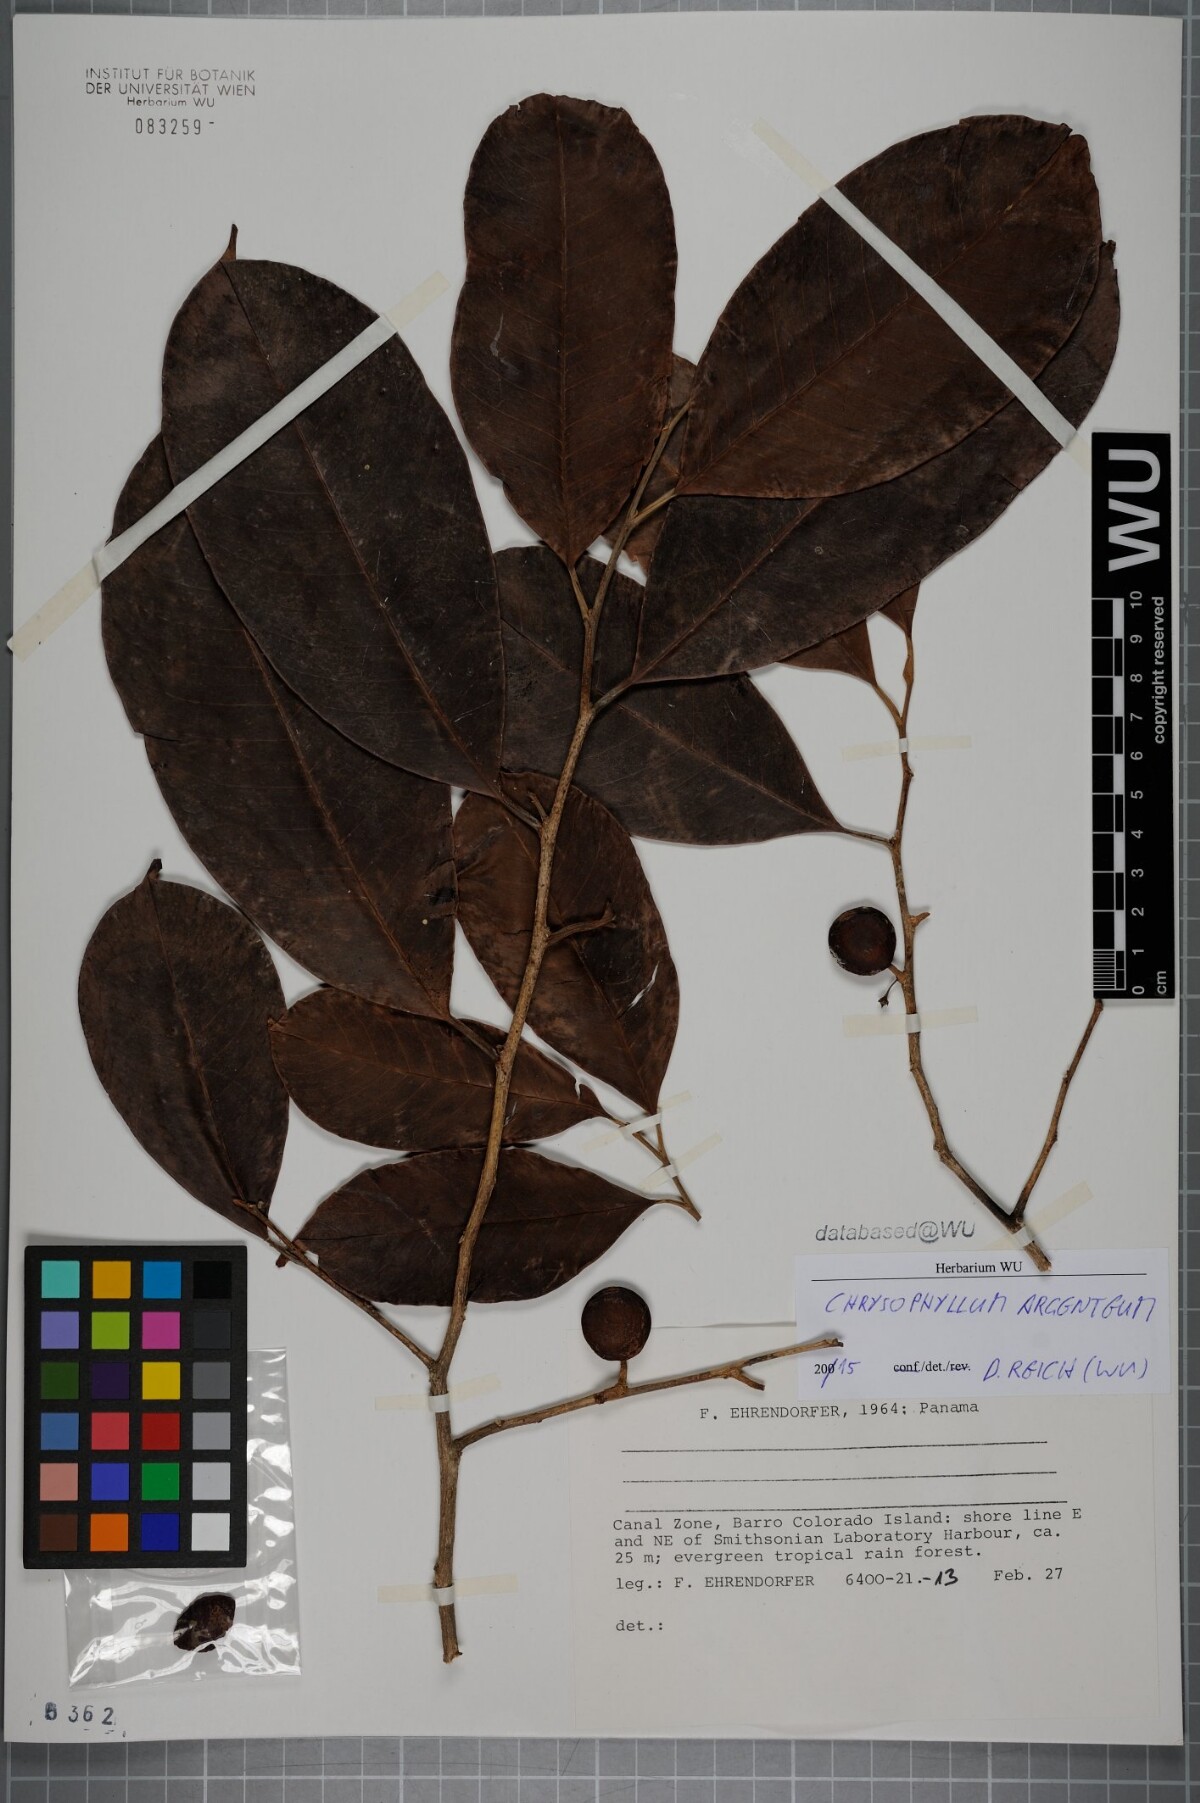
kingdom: Plantae
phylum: Tracheophyta
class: Magnoliopsida
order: Ericales
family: Sapotaceae
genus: Chrysophyllum
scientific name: Chrysophyllum argenteum
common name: Smooth star apple
